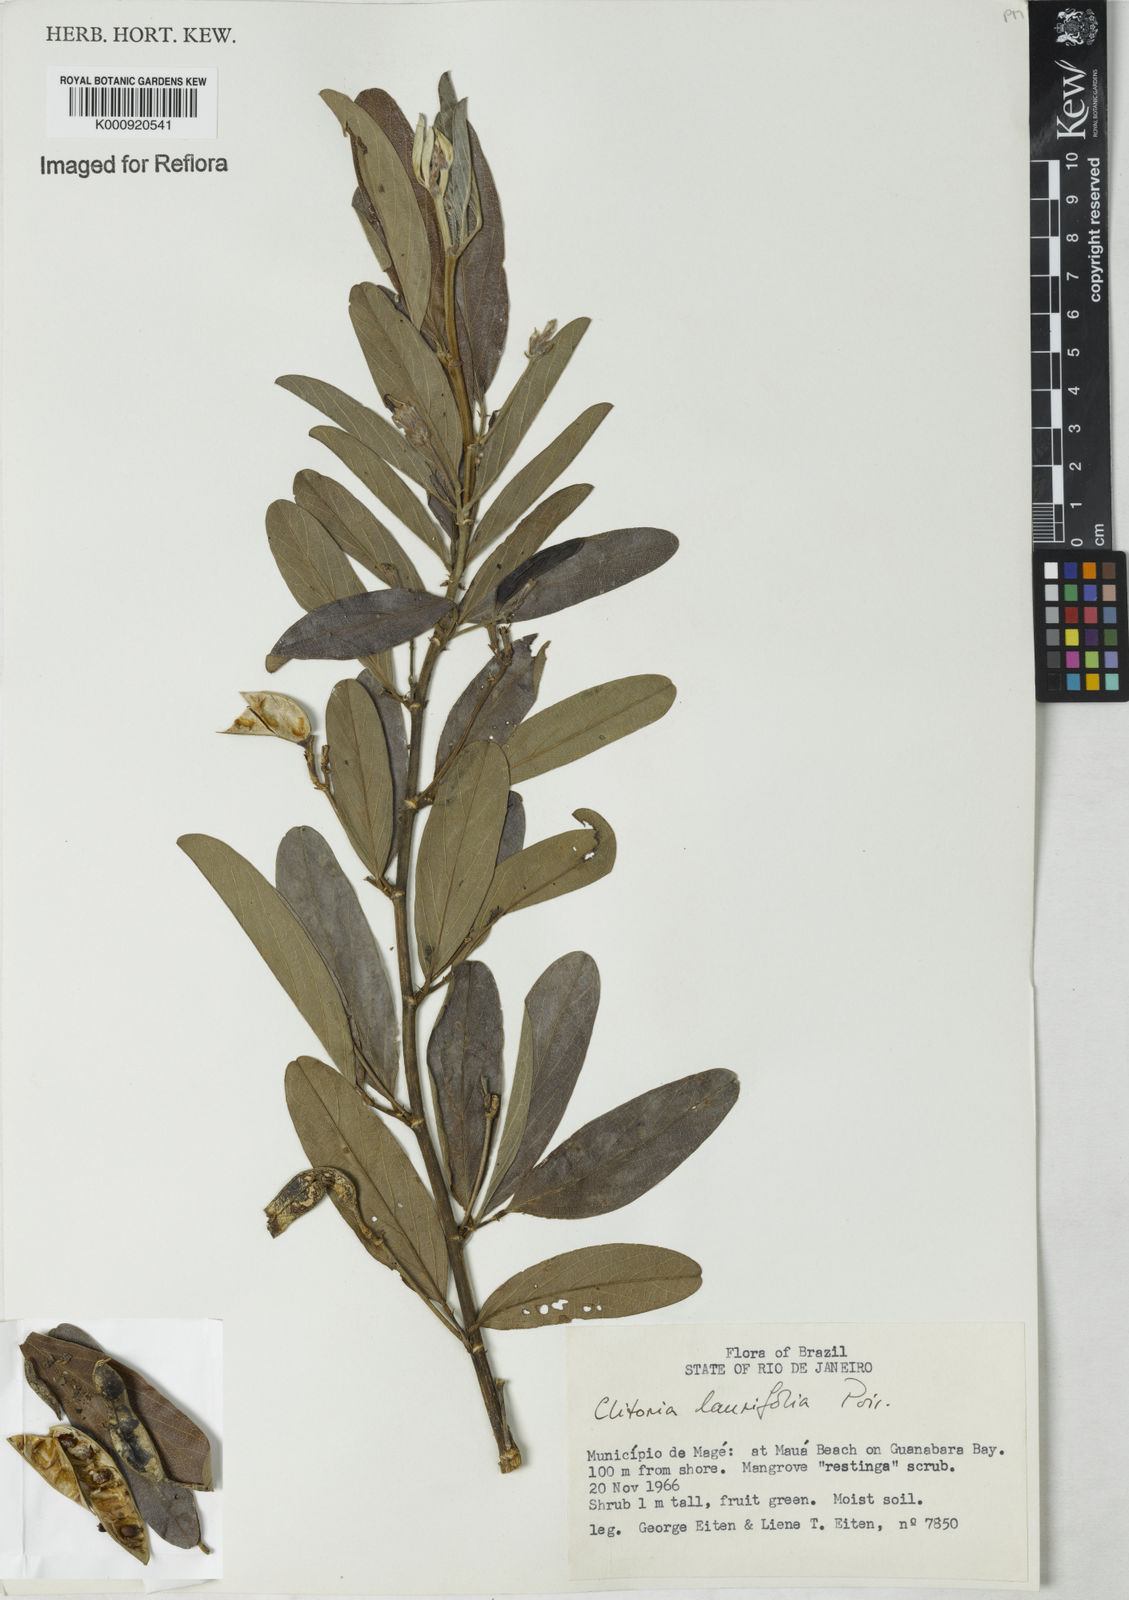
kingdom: Plantae
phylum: Tracheophyta
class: Magnoliopsida
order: Fabales
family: Fabaceae
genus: Clitoria
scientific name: Clitoria laurifolia
